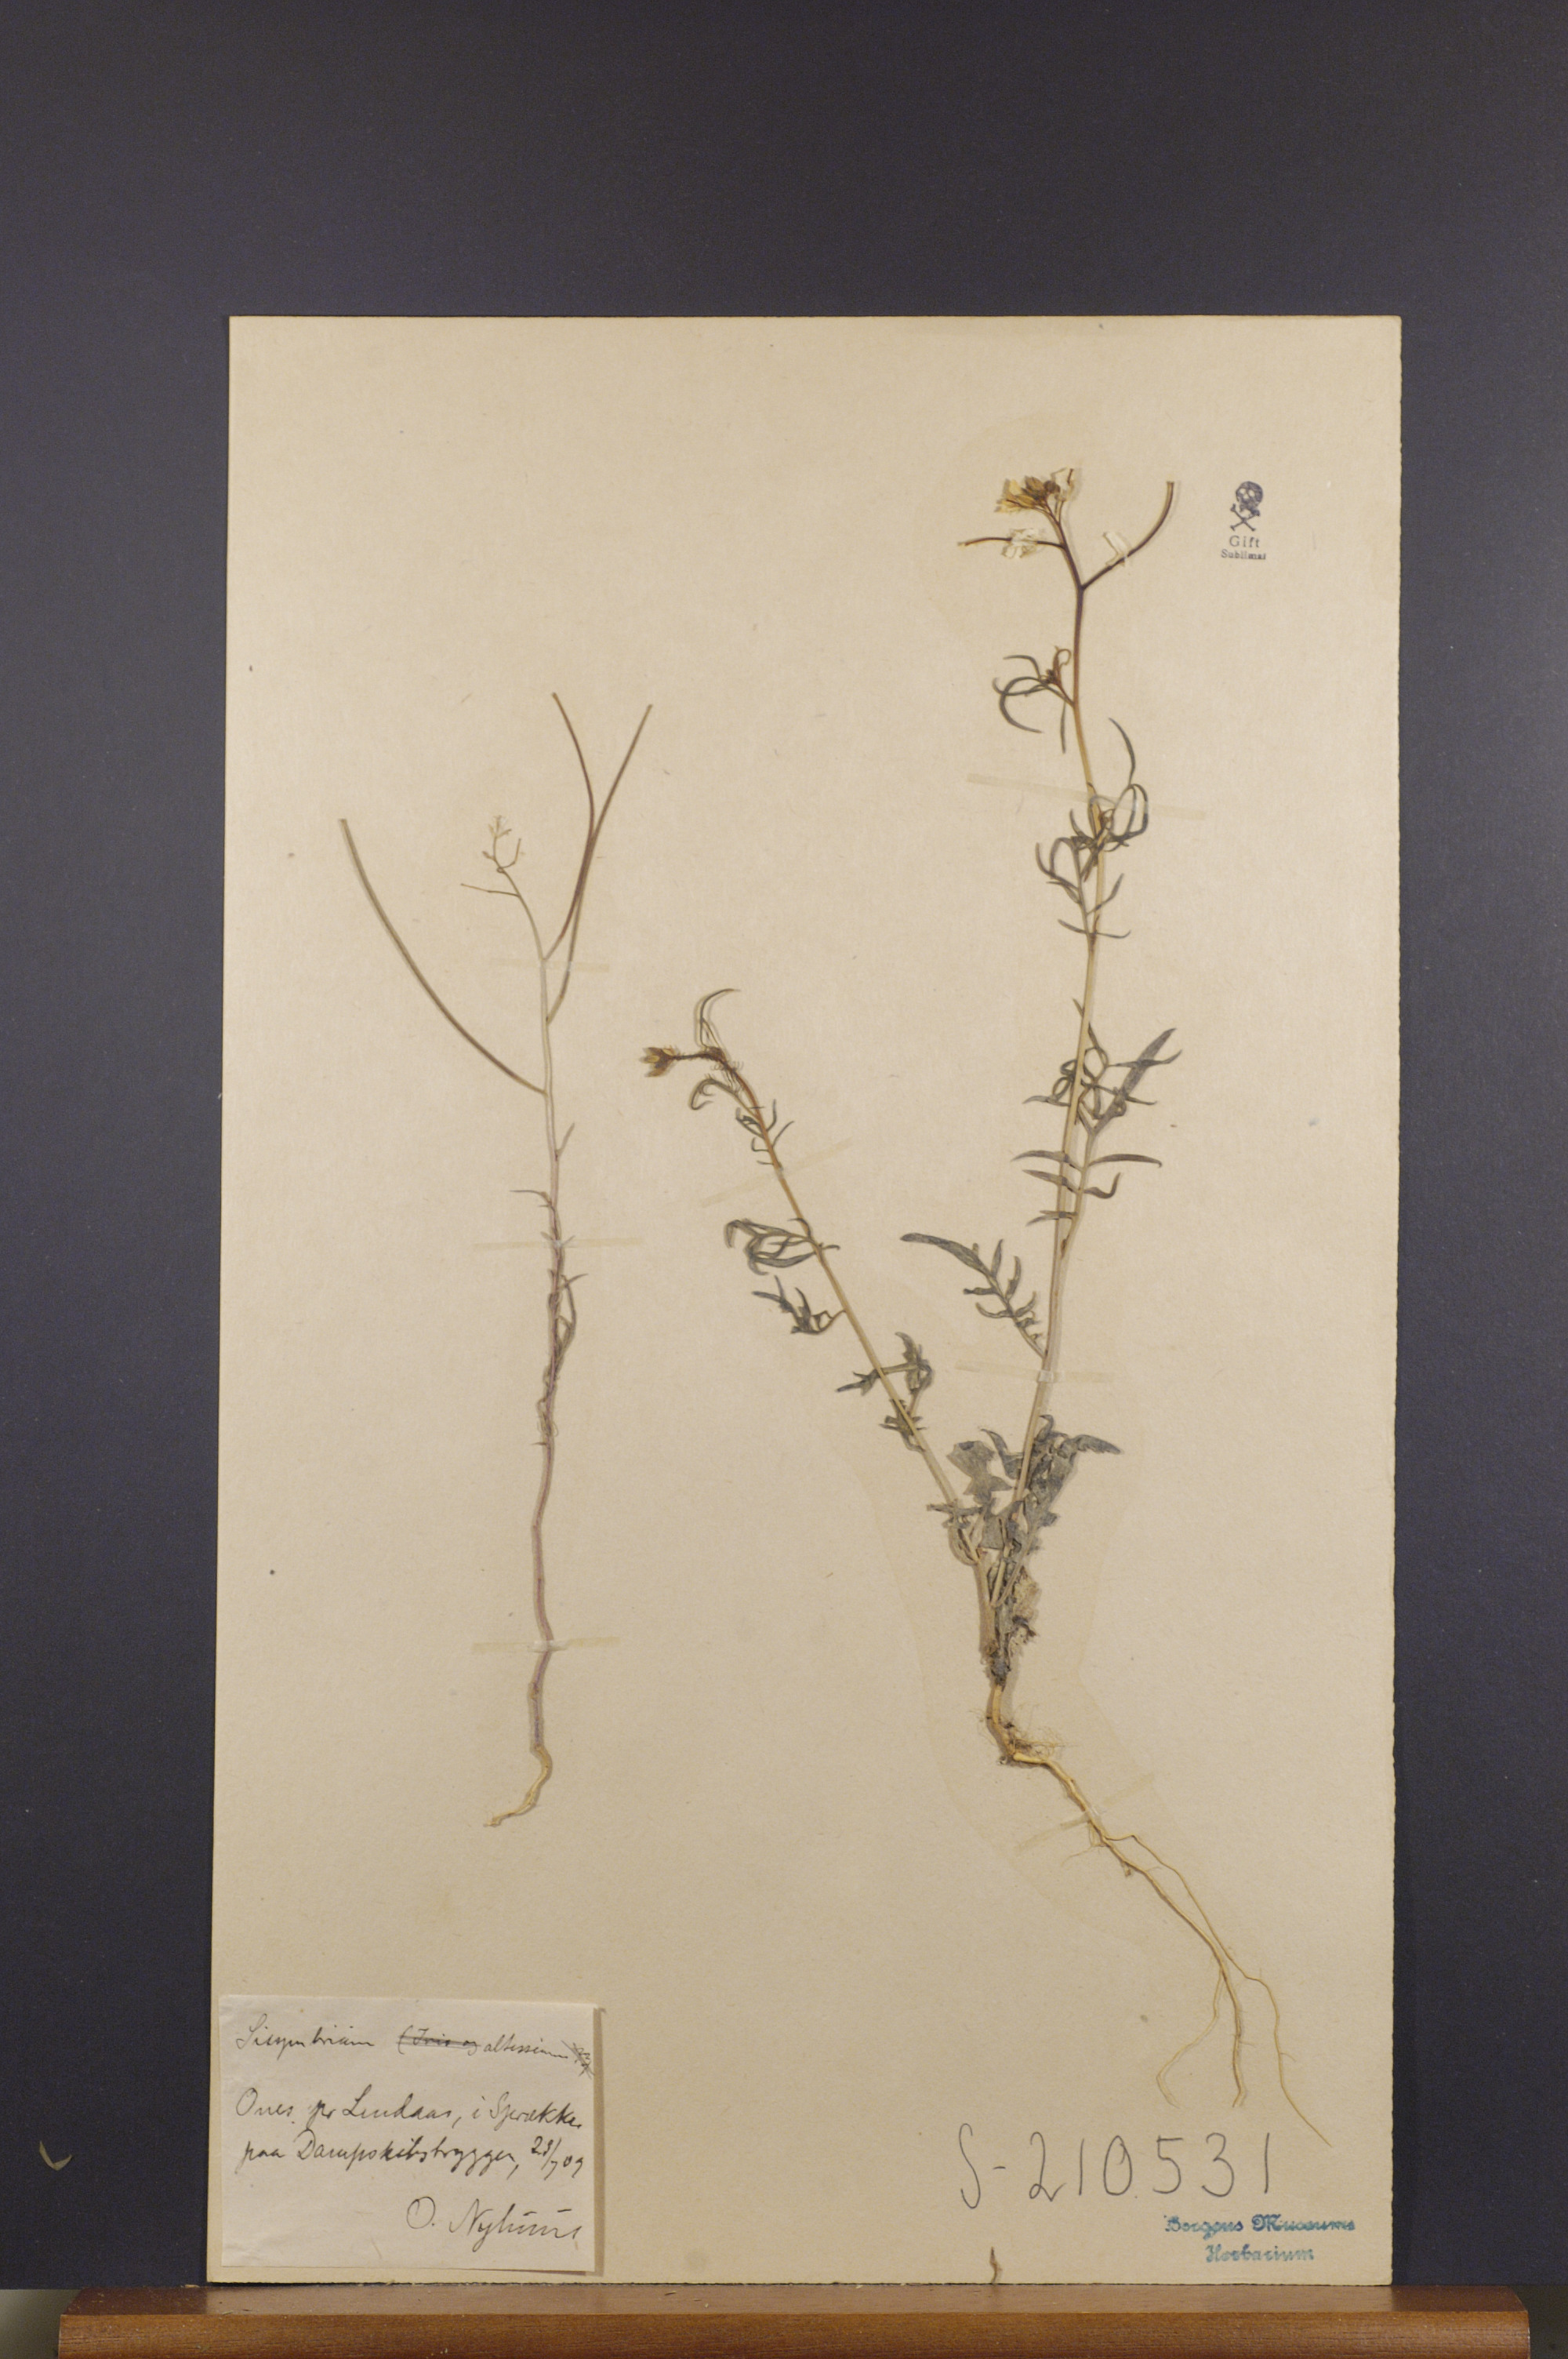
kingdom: Plantae
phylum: Tracheophyta
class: Magnoliopsida
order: Brassicales
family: Brassicaceae
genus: Sisymbrium
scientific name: Sisymbrium altissimum
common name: Tall rocket
